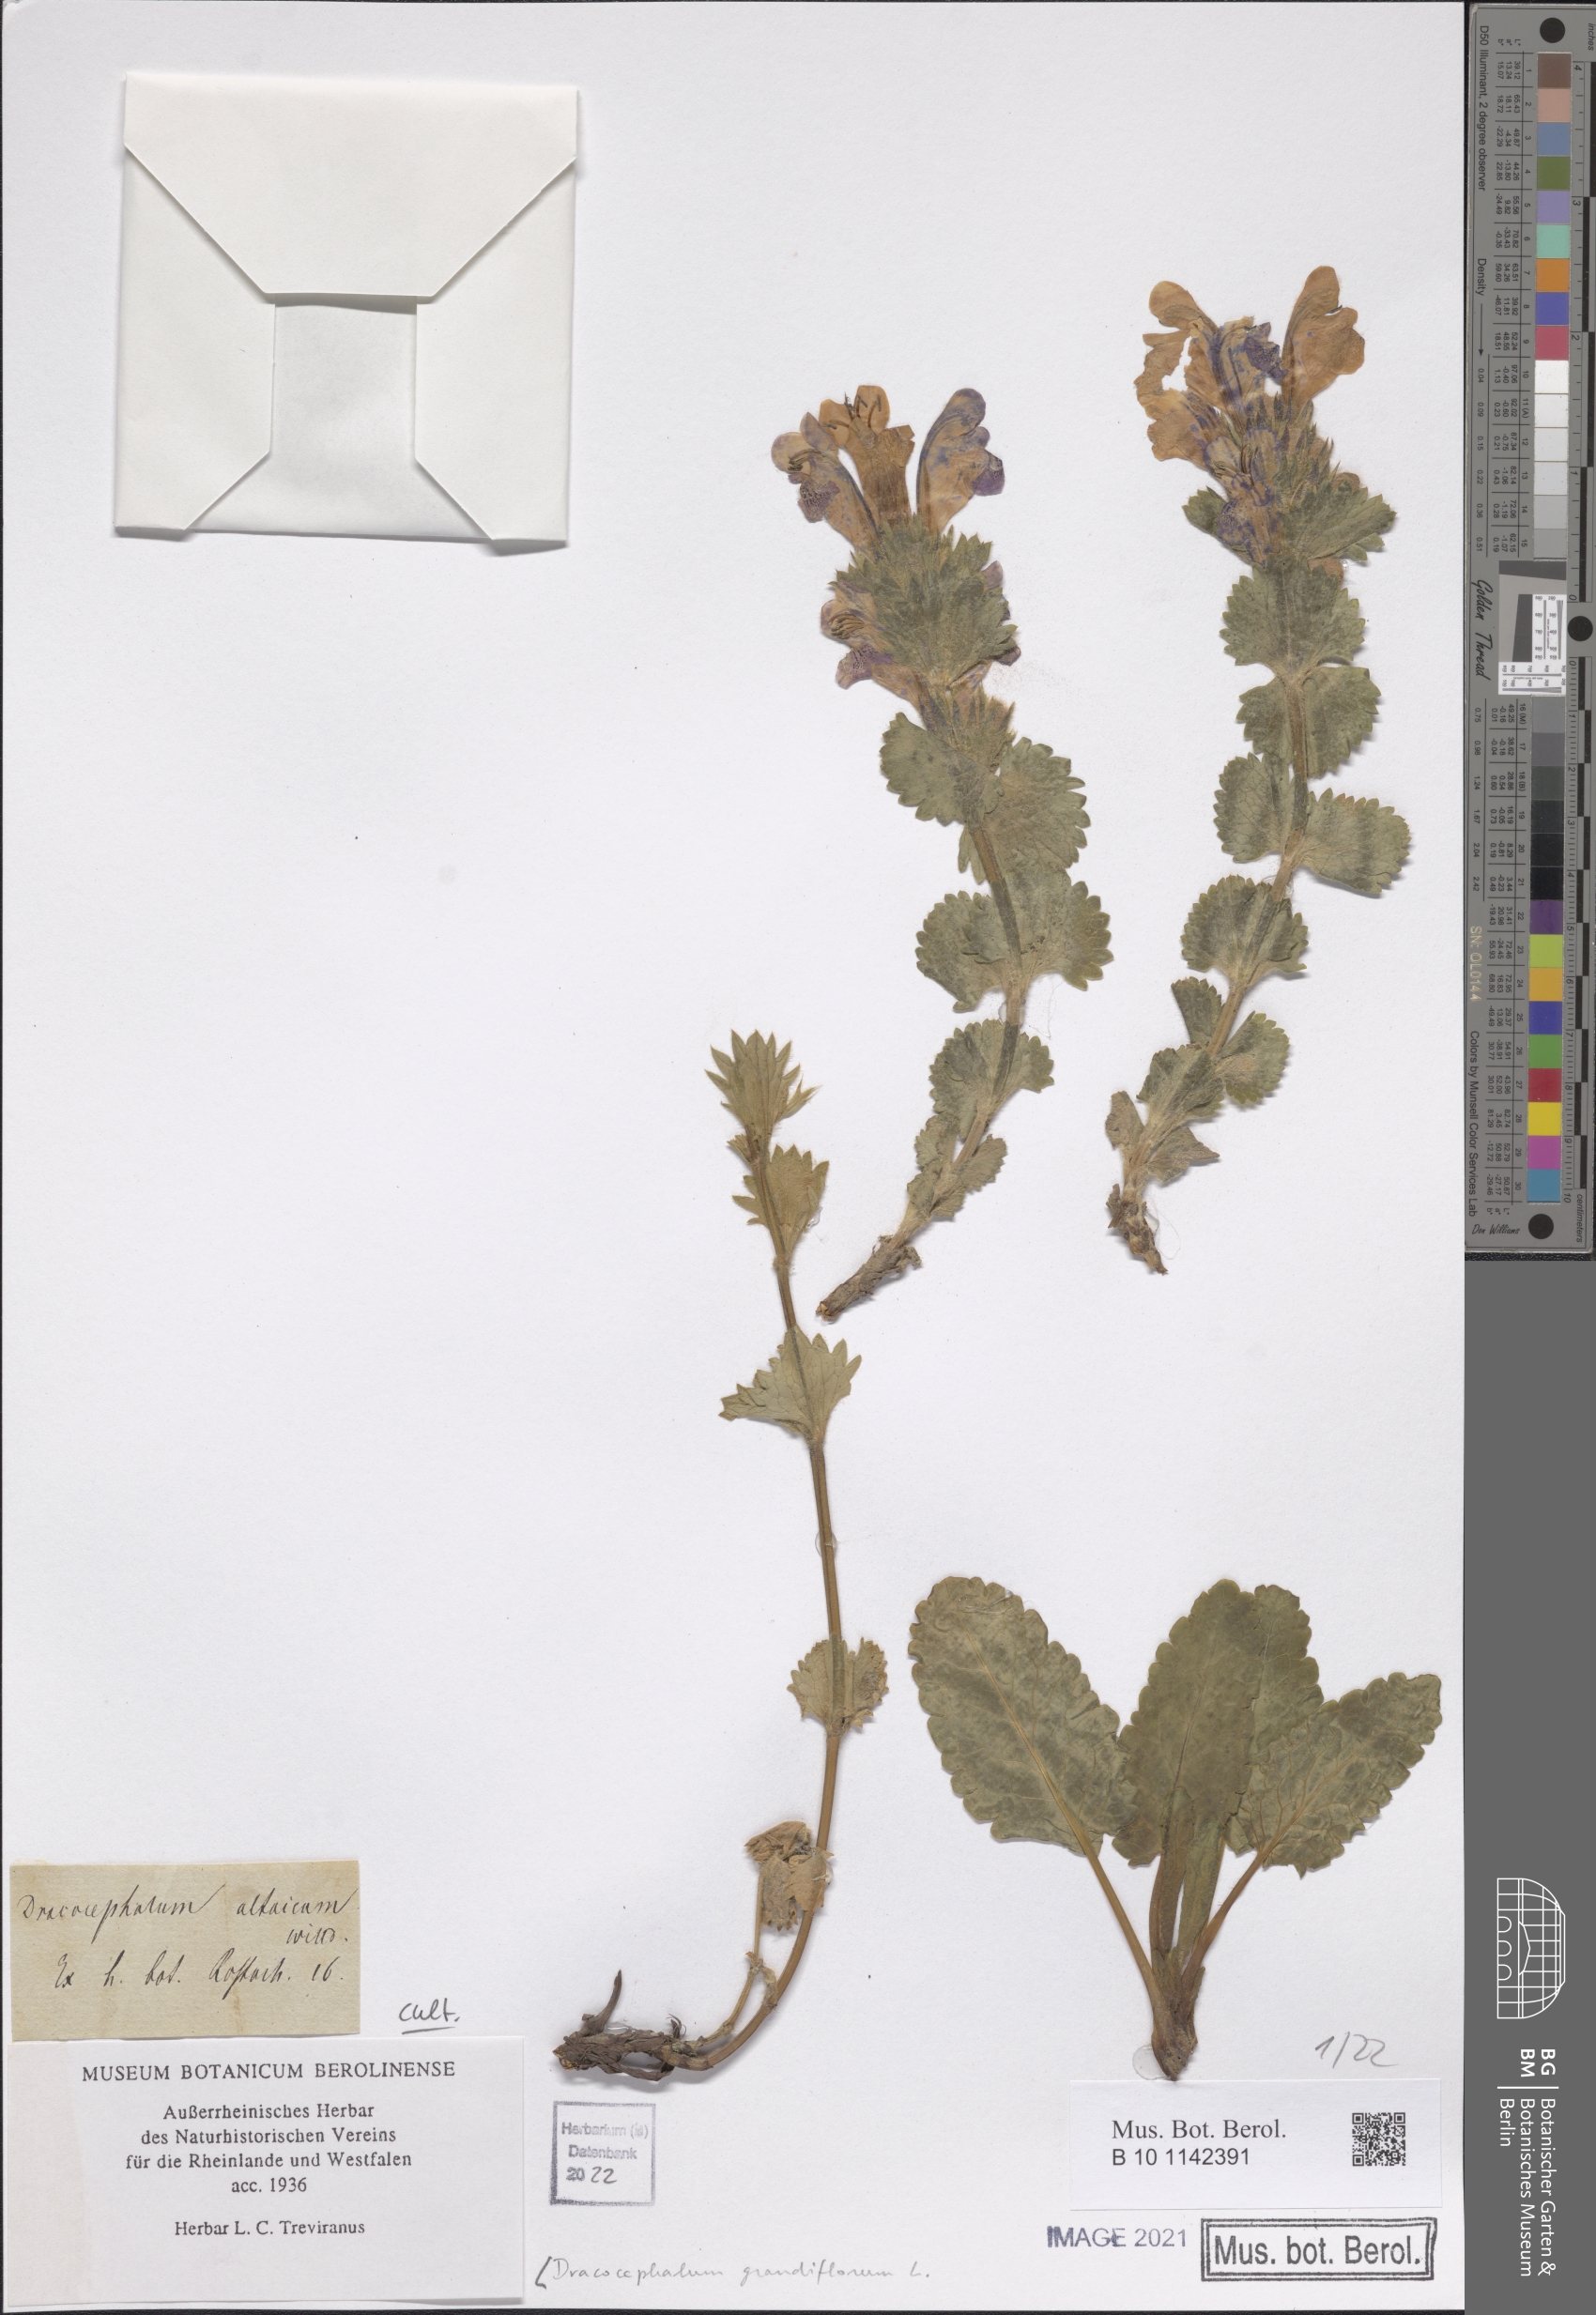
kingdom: Plantae
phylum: Tracheophyta
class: Magnoliopsida
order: Lamiales
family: Lamiaceae
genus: Dracocephalum
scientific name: Dracocephalum grandiflorum
